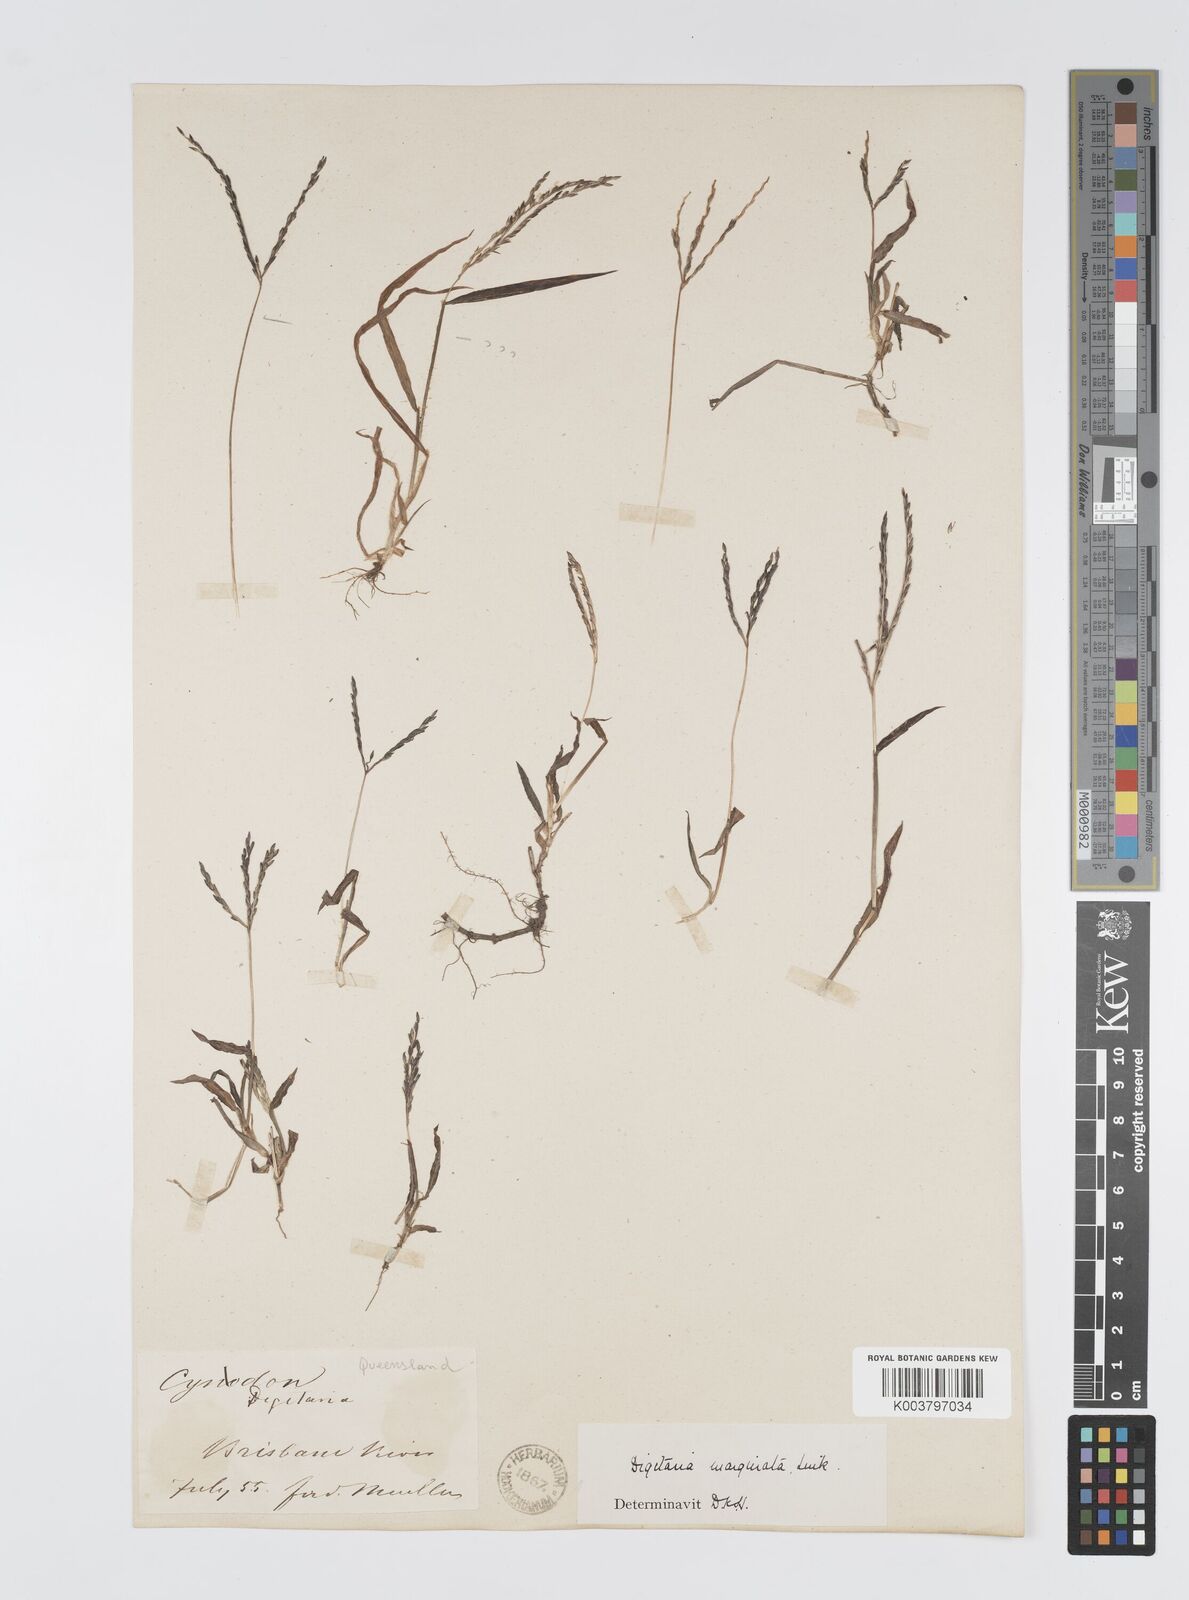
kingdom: Plantae
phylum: Tracheophyta
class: Liliopsida
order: Poales
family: Poaceae
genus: Digitaria
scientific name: Digitaria ciliaris
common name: Tropical finger-grass
